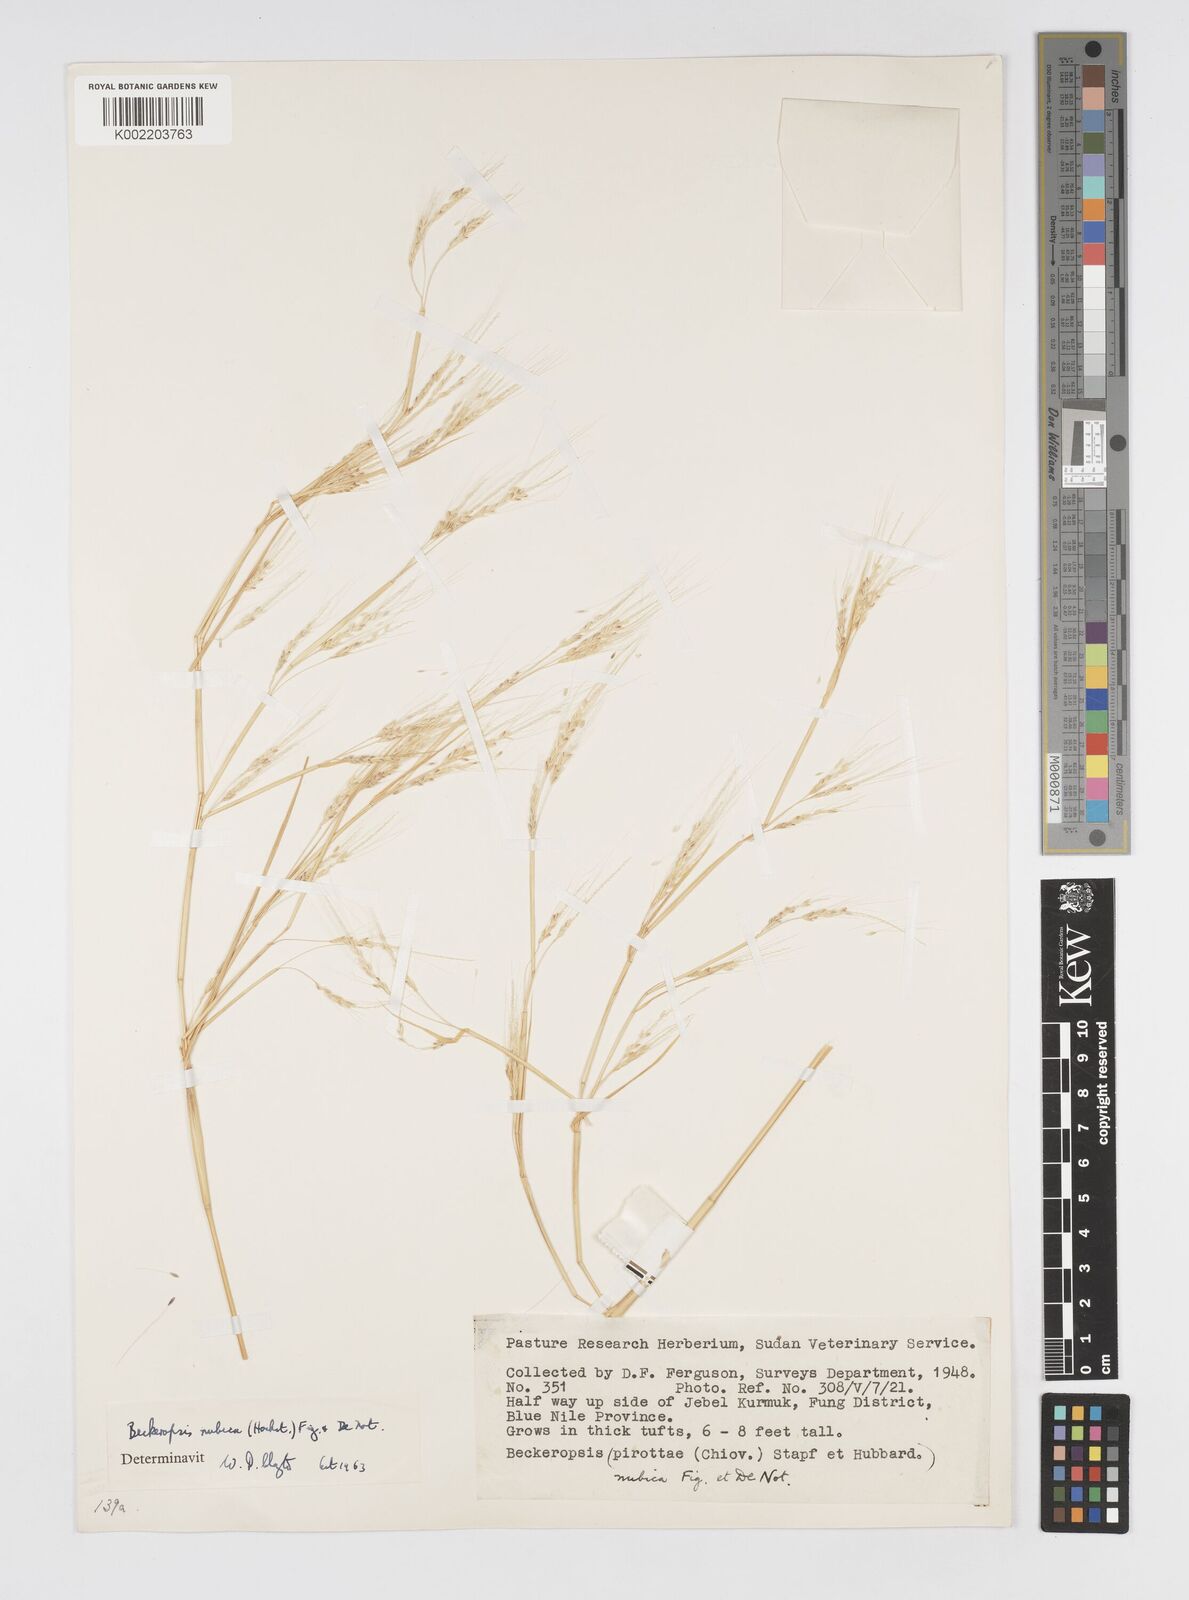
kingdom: Plantae
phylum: Tracheophyta
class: Liliopsida
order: Poales
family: Poaceae
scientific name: Poaceae
